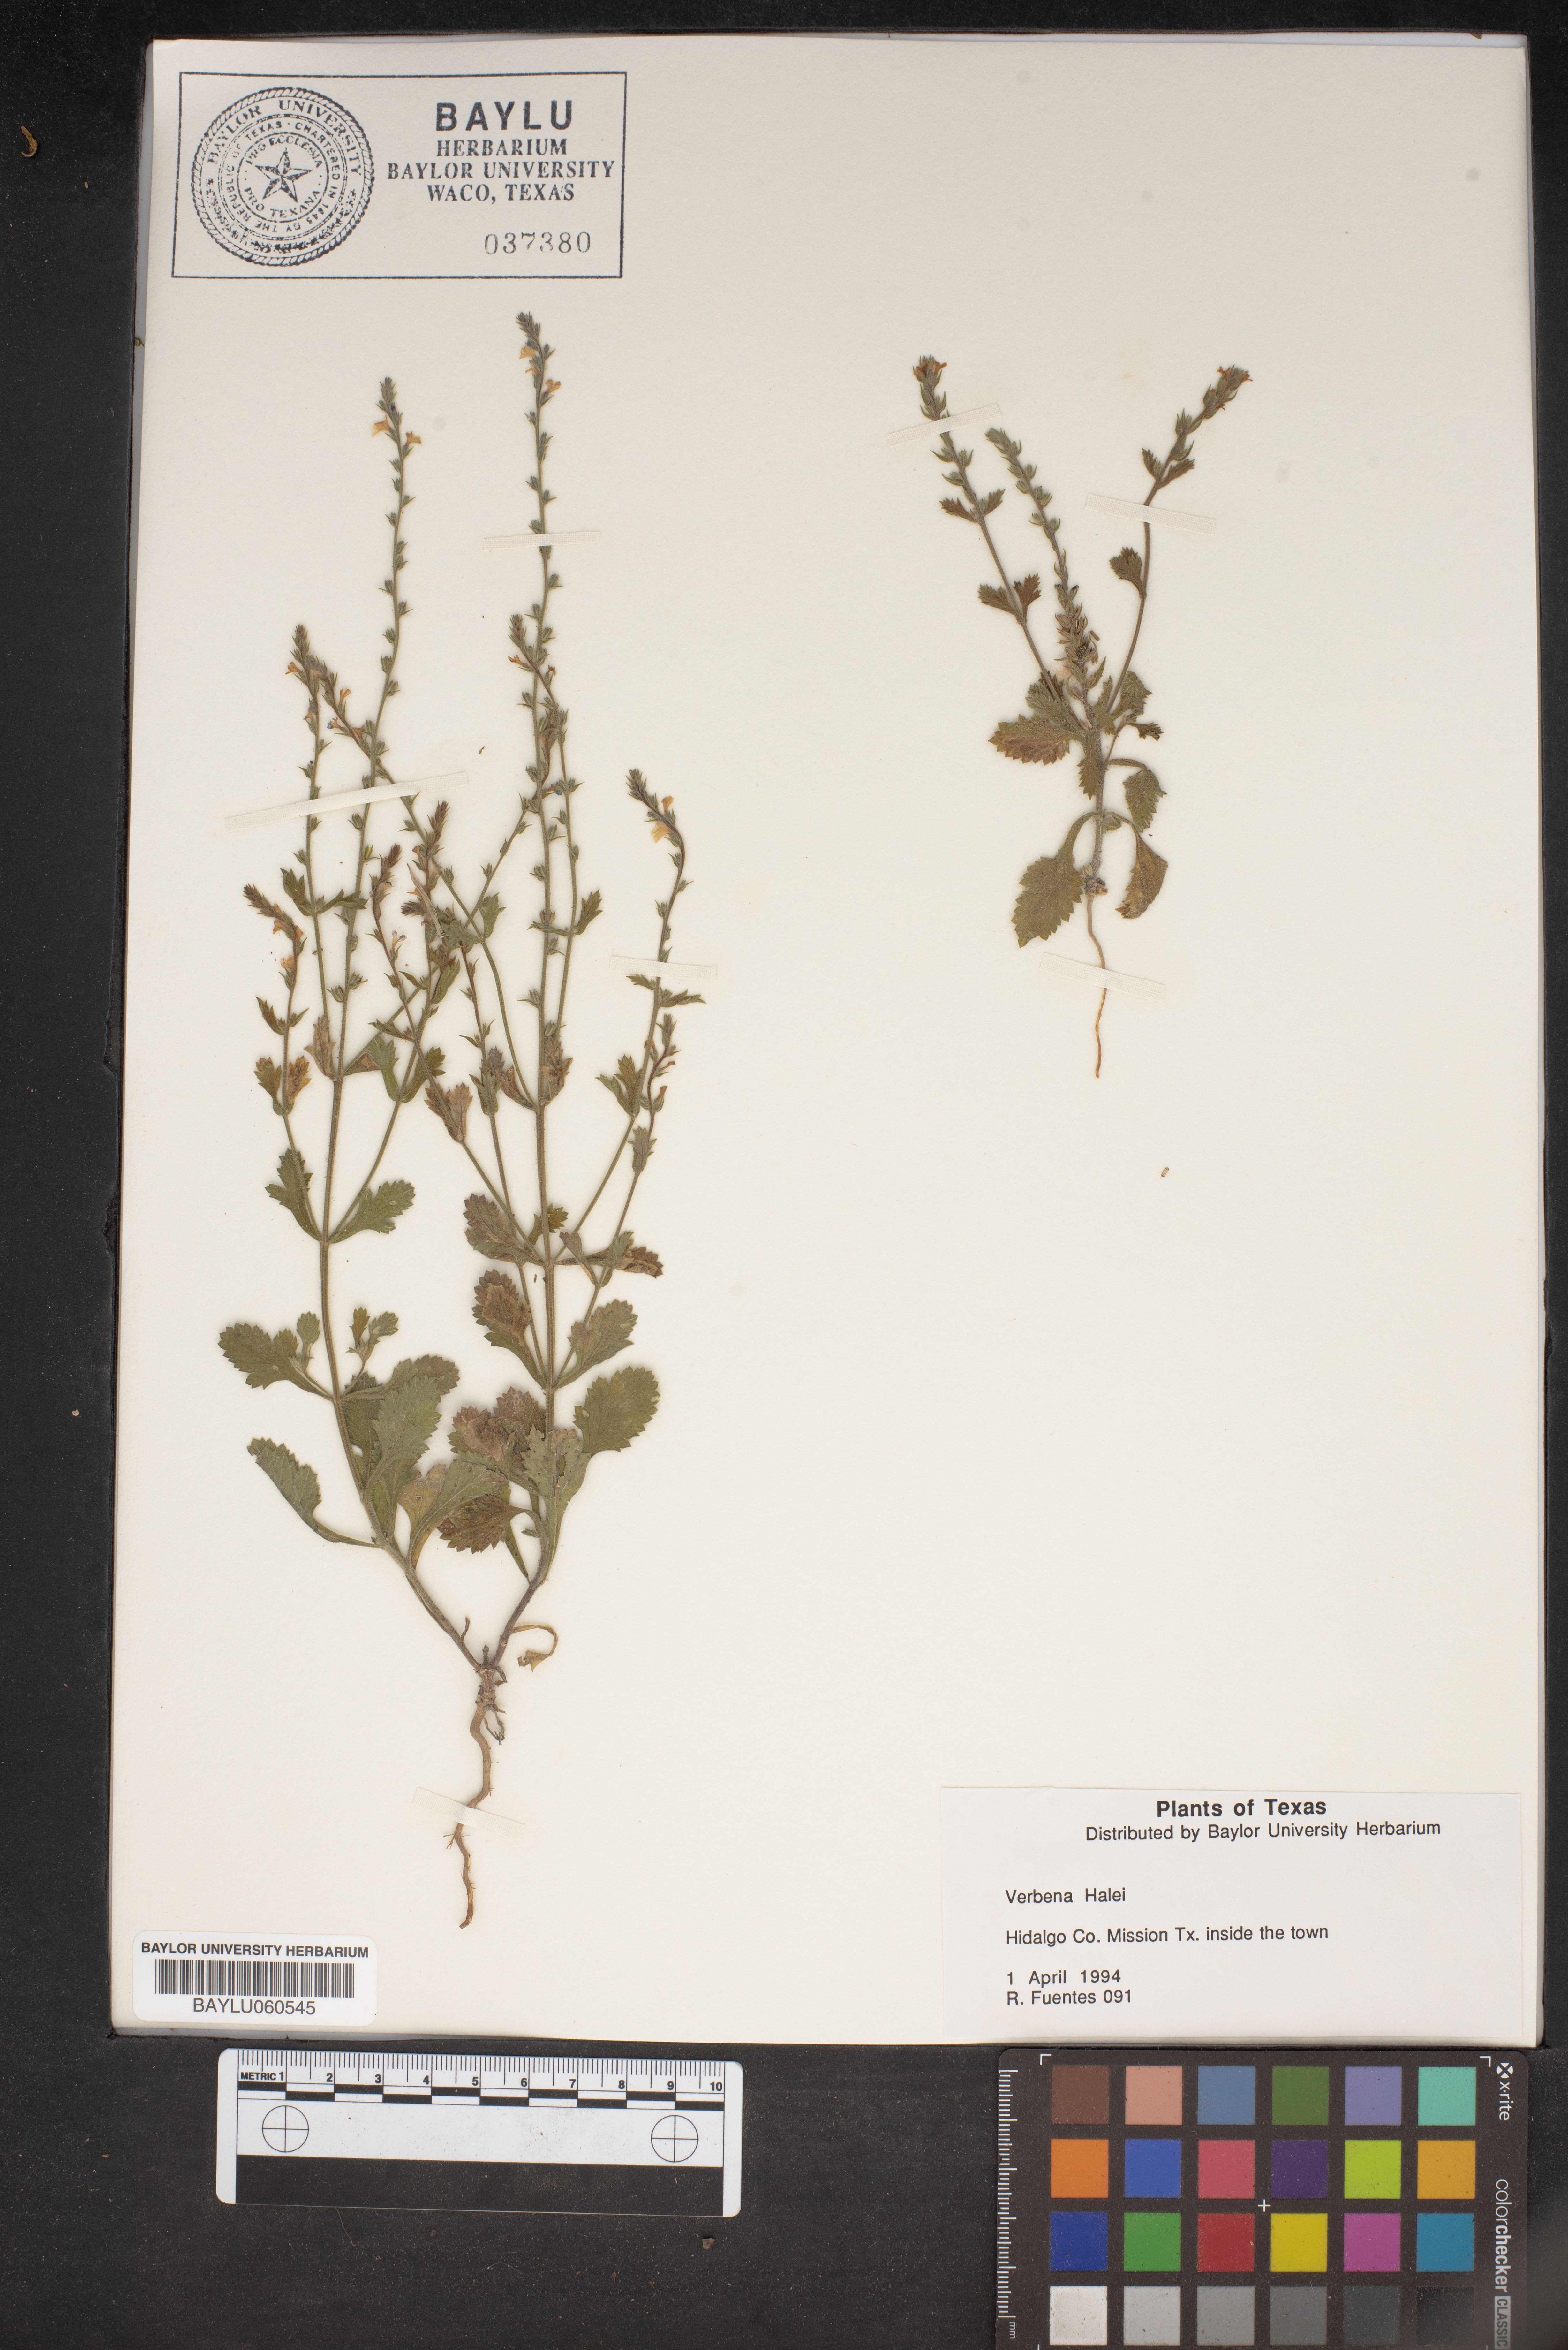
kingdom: Plantae
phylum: Tracheophyta
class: Magnoliopsida
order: Lamiales
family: Verbenaceae
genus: Verbena
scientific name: Verbena halei
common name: Texas vervain
